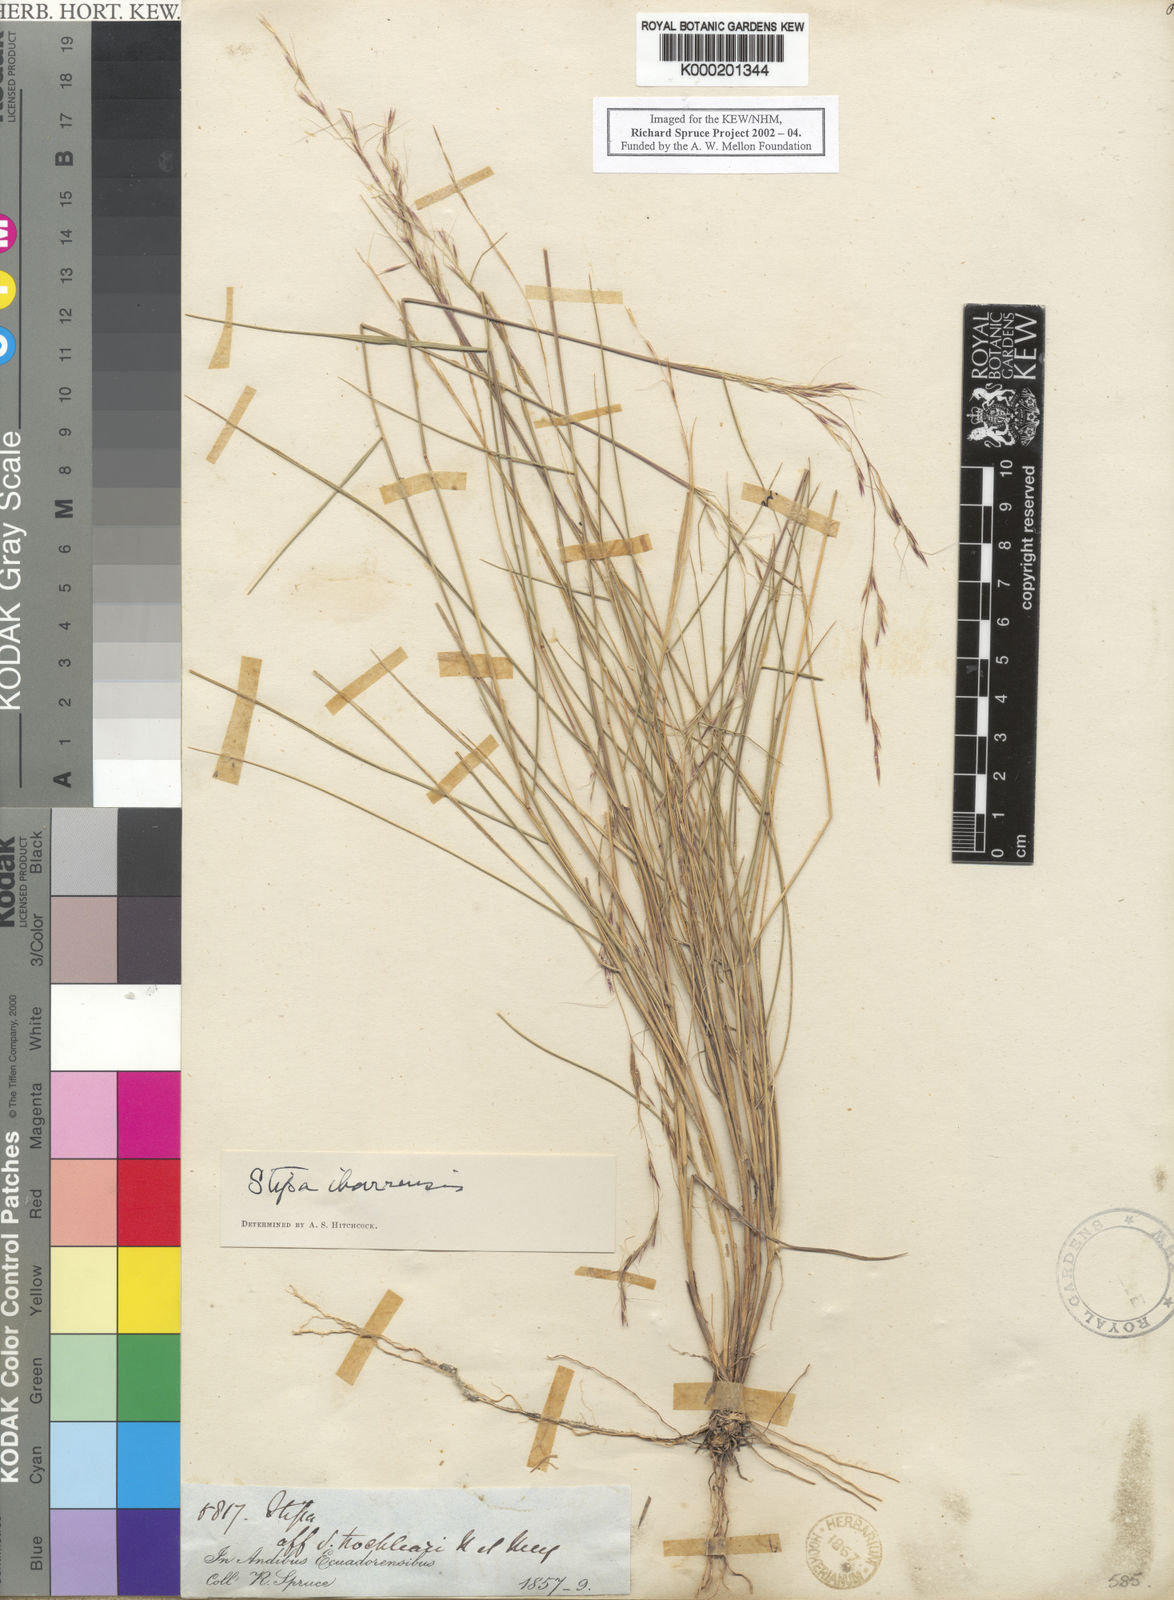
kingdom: Plantae
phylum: Tracheophyta
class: Liliopsida
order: Poales
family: Poaceae
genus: Nassella
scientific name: Nassella ibarrensis
